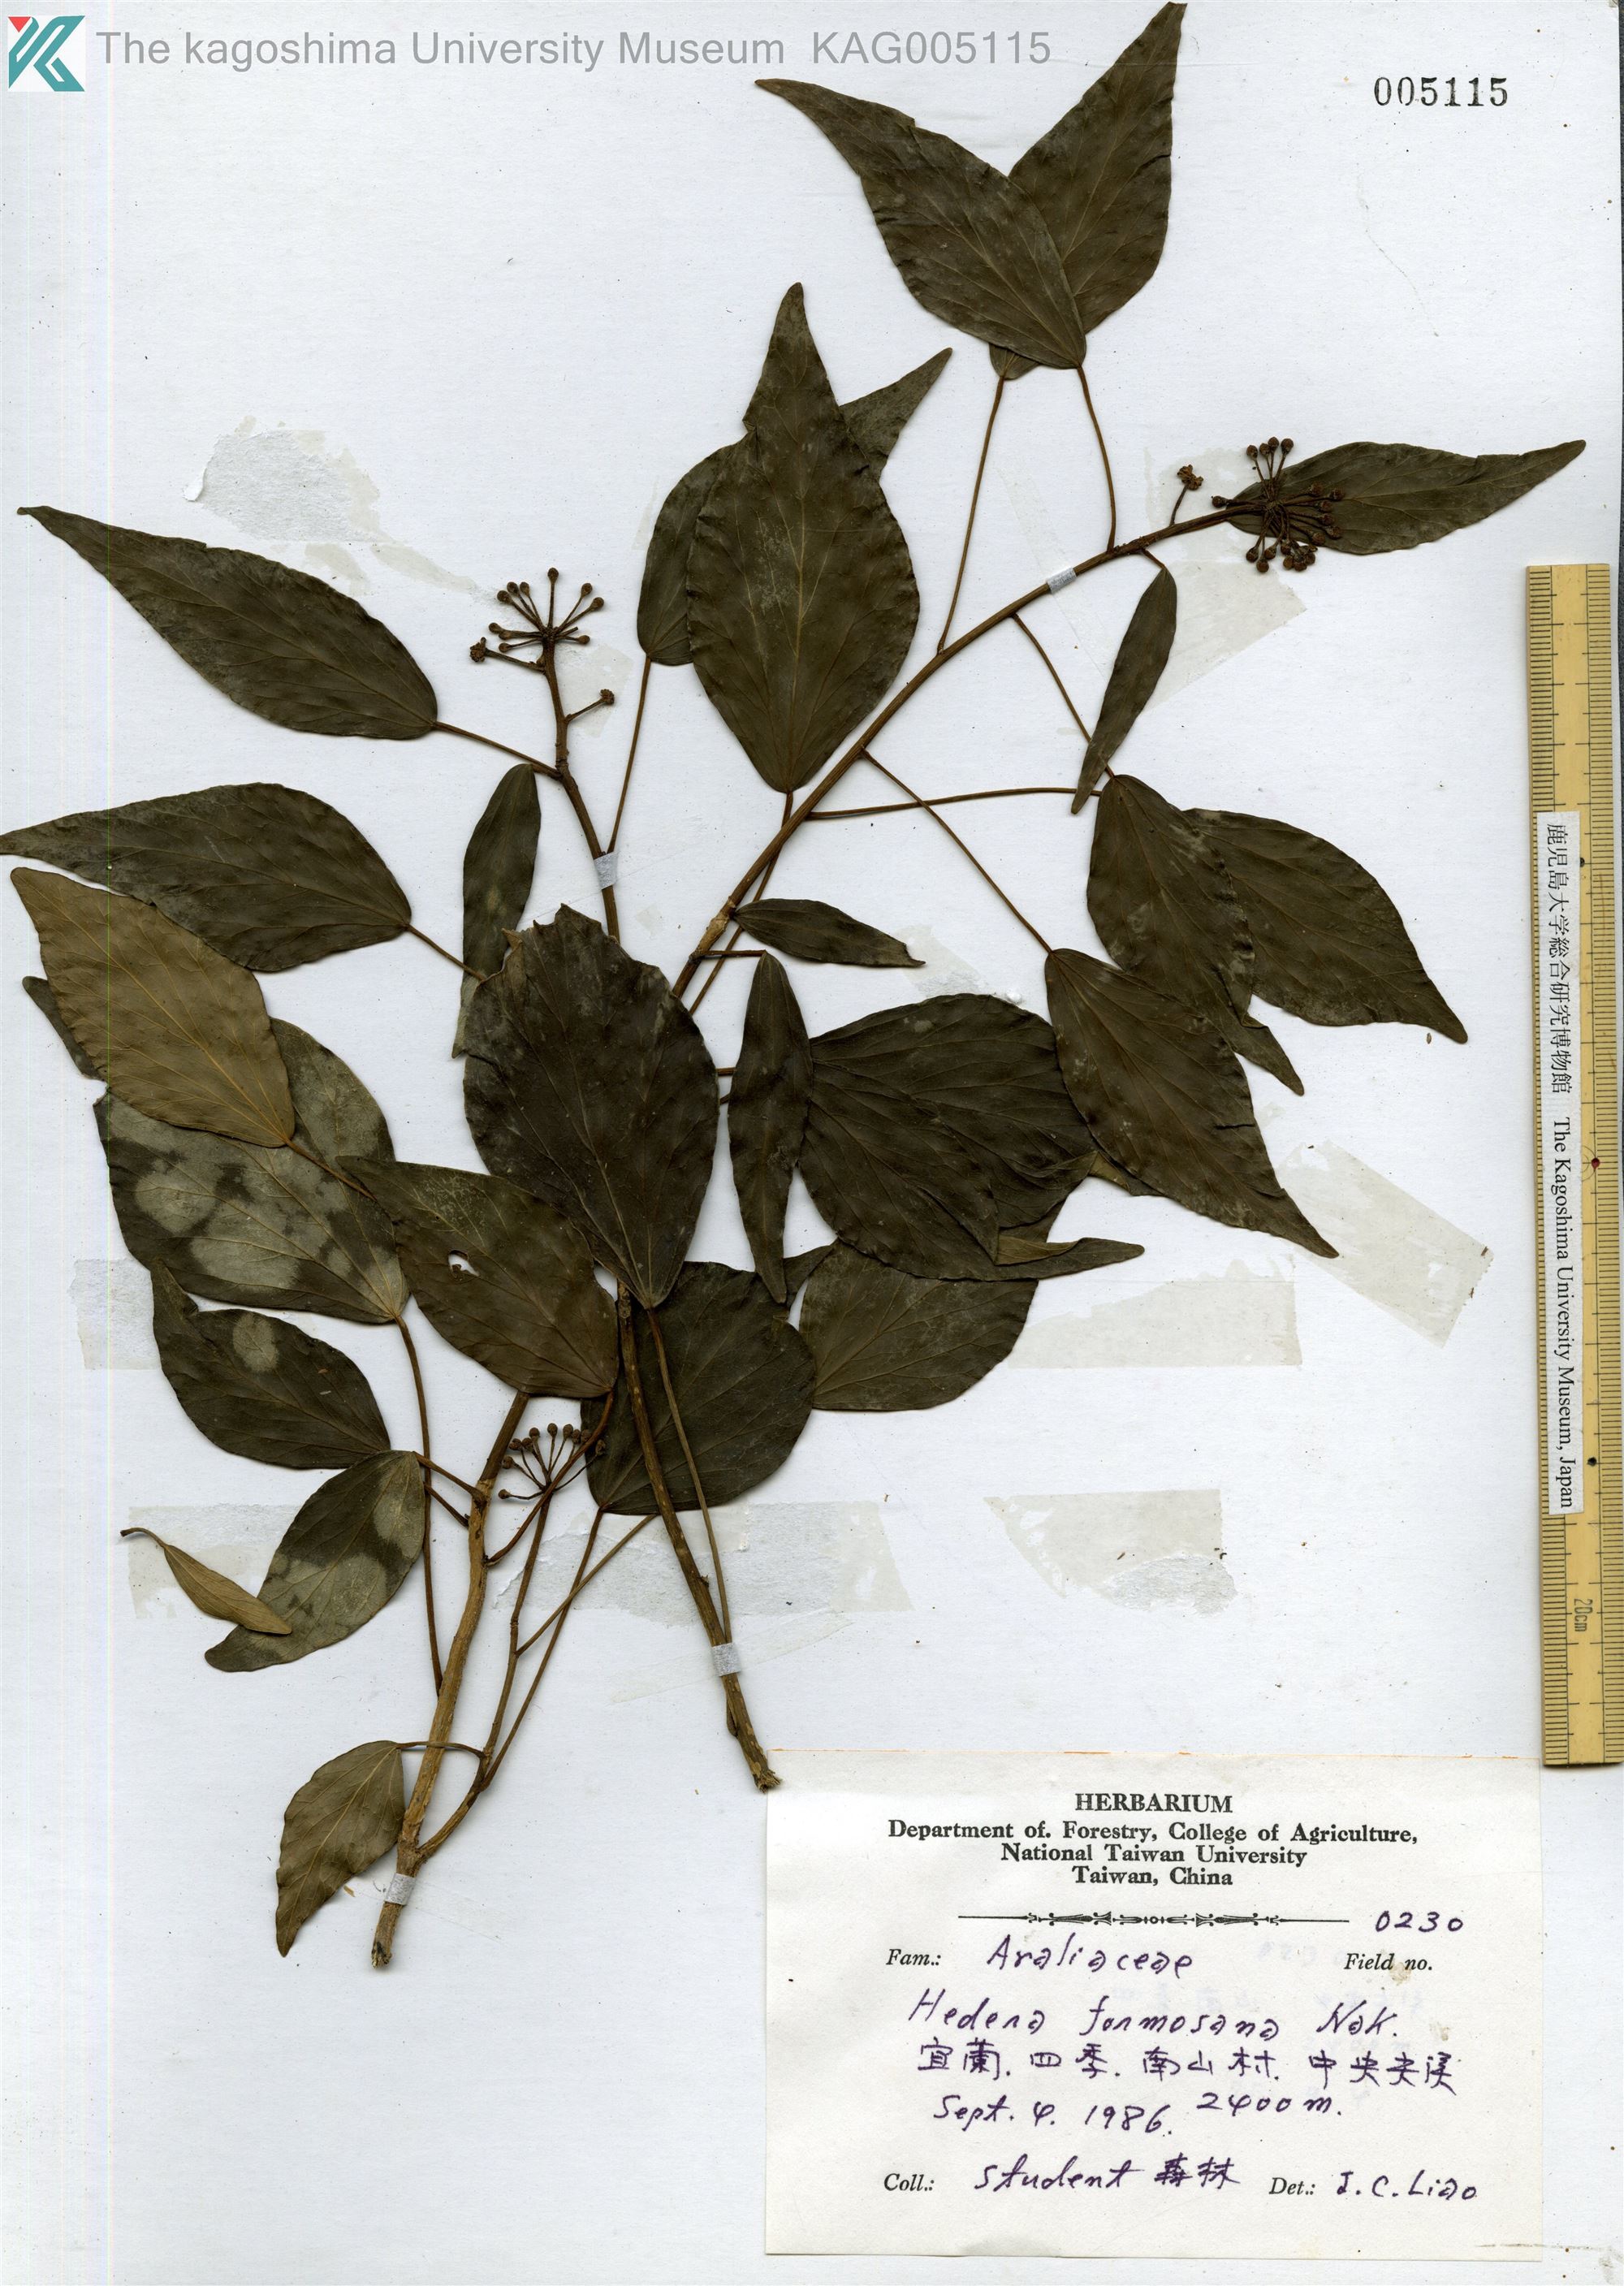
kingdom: Plantae
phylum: Tracheophyta
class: Magnoliopsida
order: Apiales
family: Araliaceae
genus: Hedera
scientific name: Hedera rhombea
